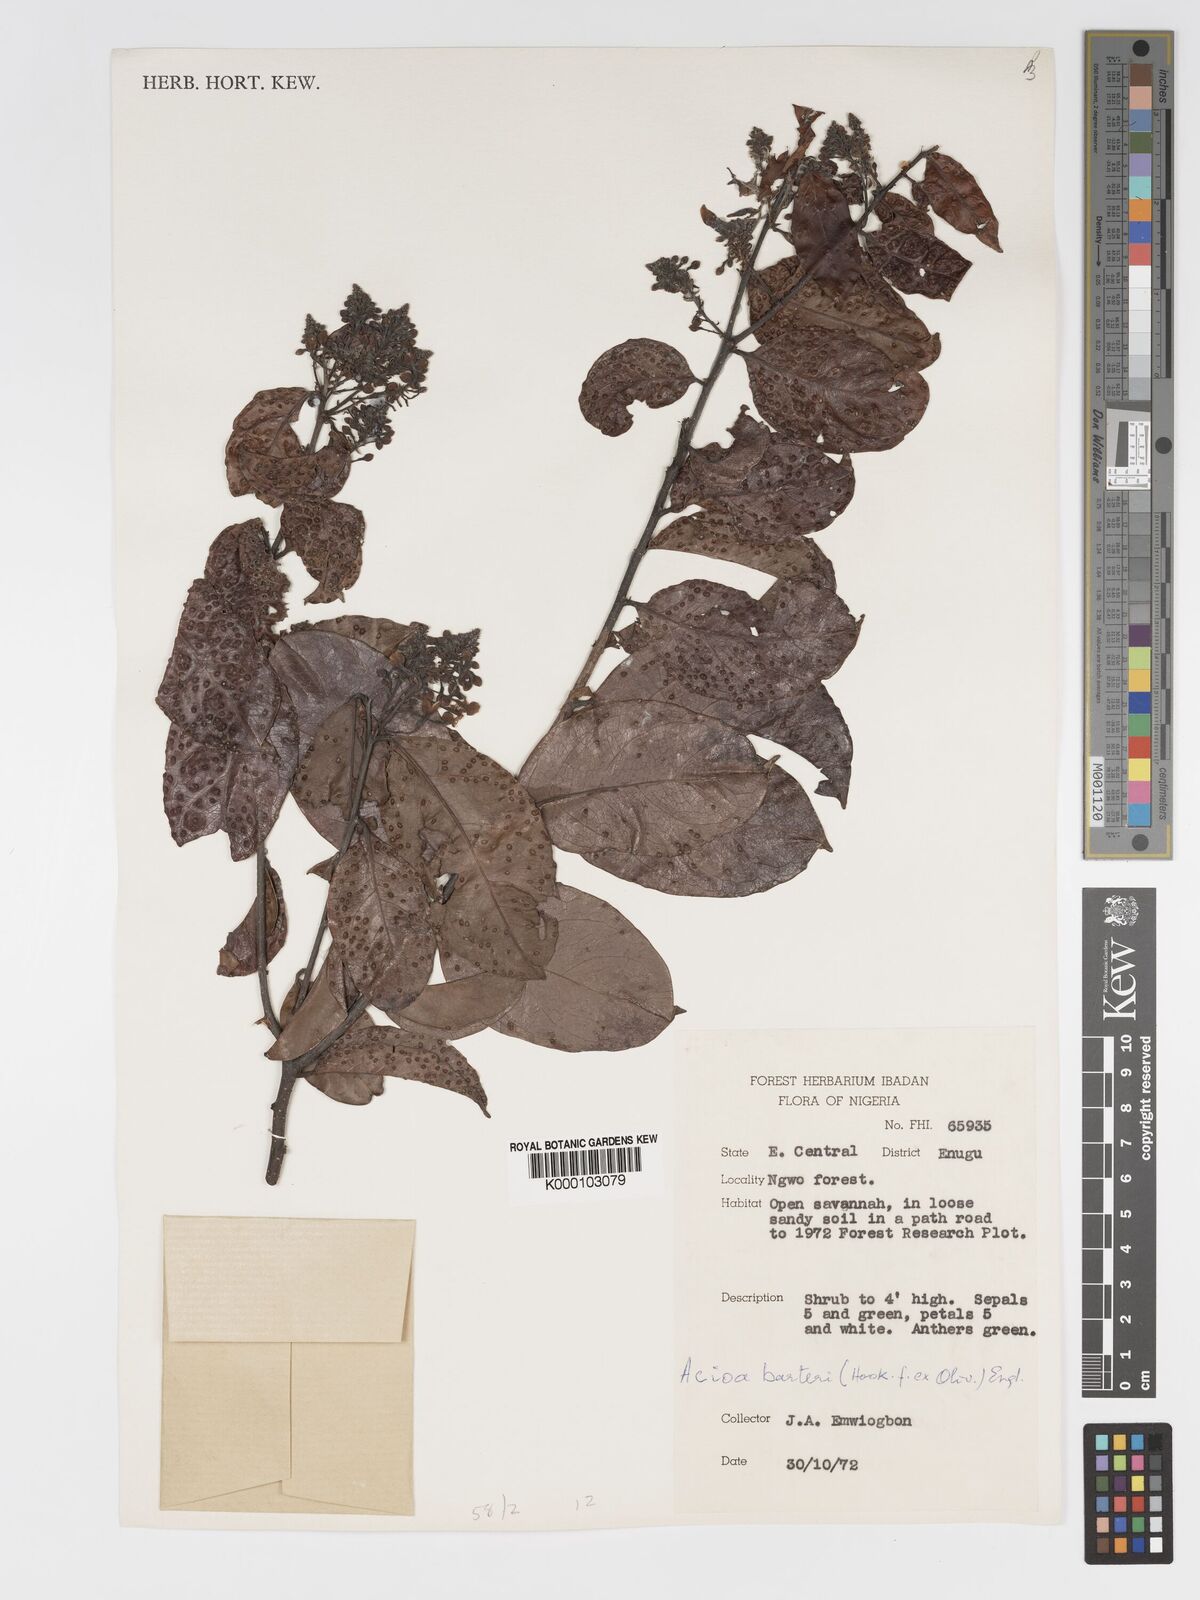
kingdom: Plantae
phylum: Tracheophyta
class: Magnoliopsida
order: Malpighiales
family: Chrysobalanaceae
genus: Dactyladenia
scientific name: Dactyladenia barteri
